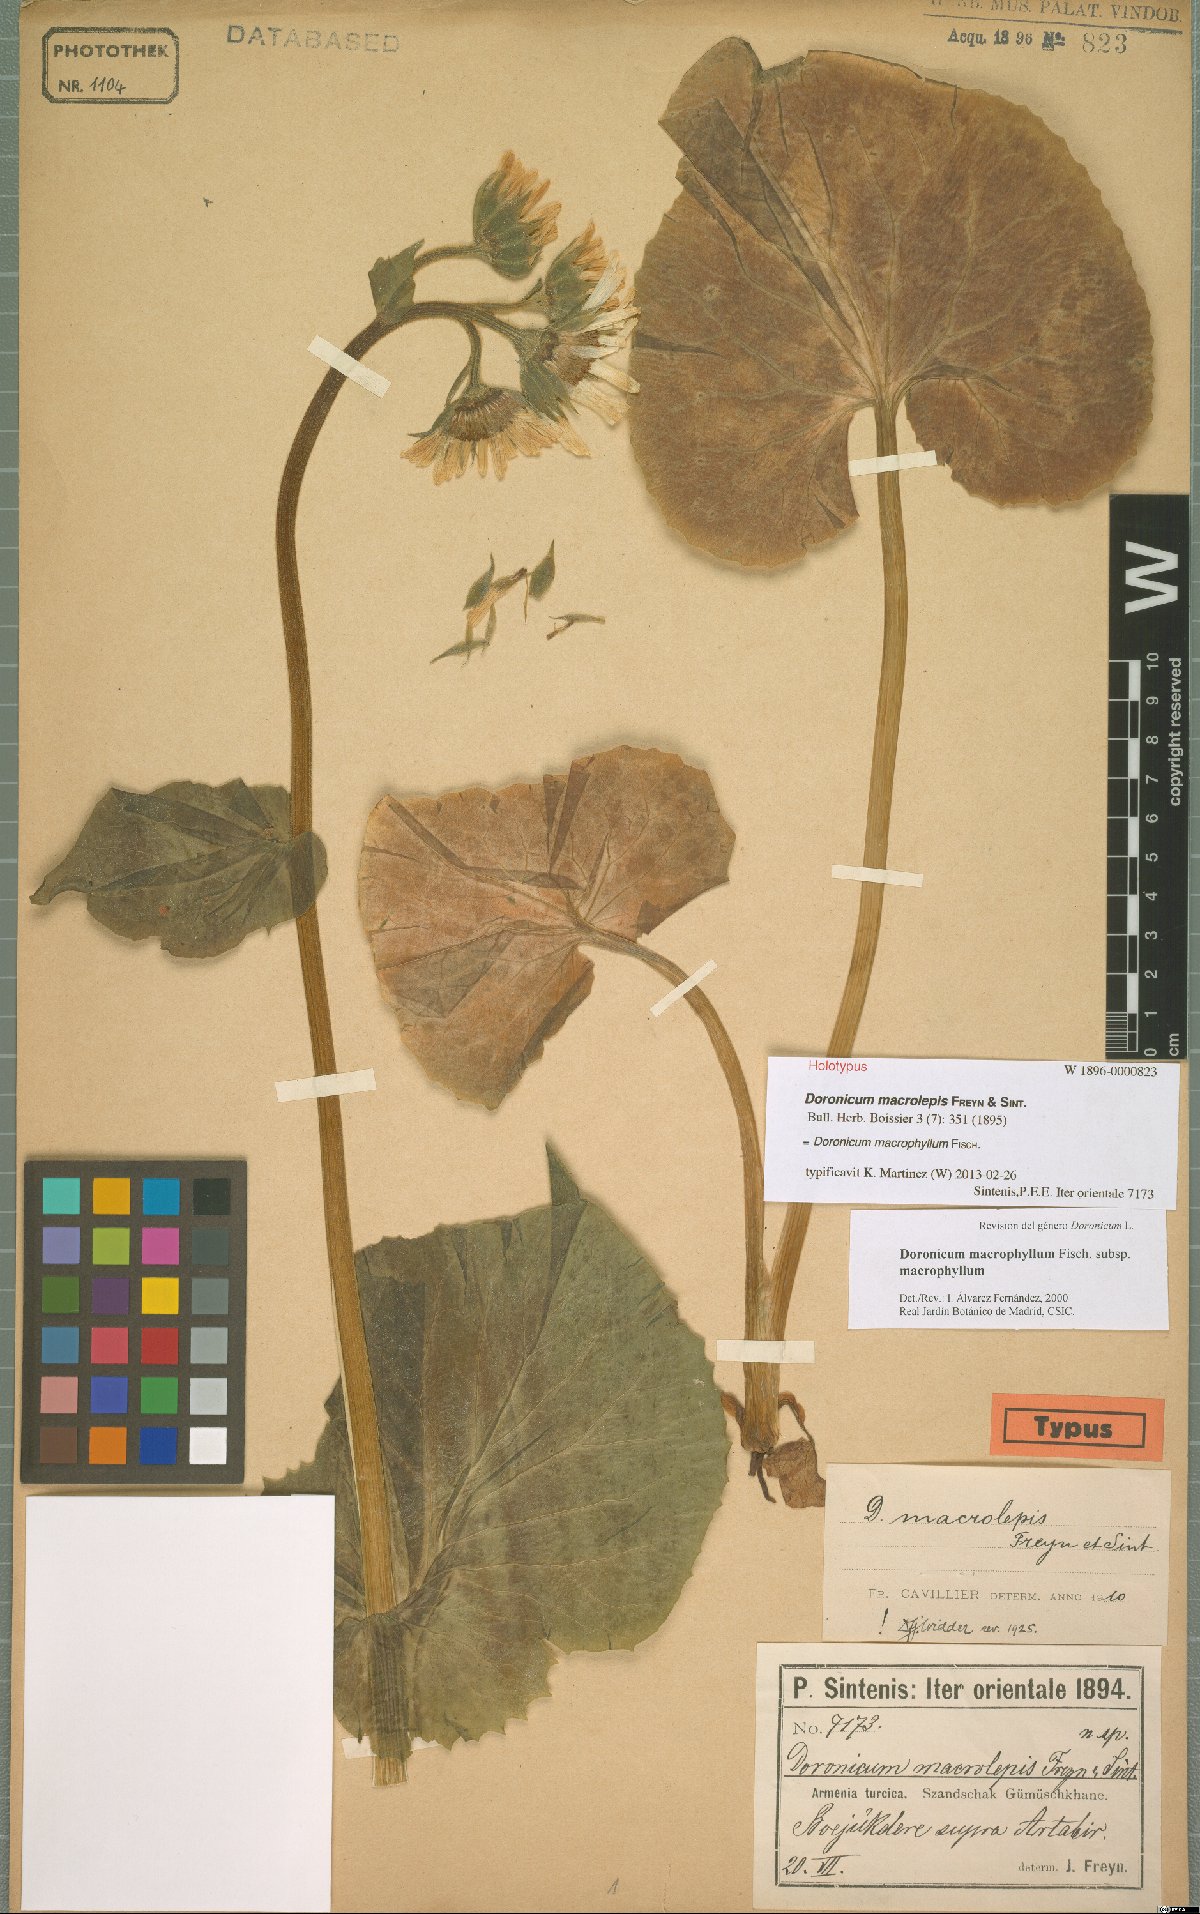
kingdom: Plantae
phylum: Tracheophyta
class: Magnoliopsida
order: Asterales
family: Asteraceae
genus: Doronicum
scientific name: Doronicum macrophyllum
